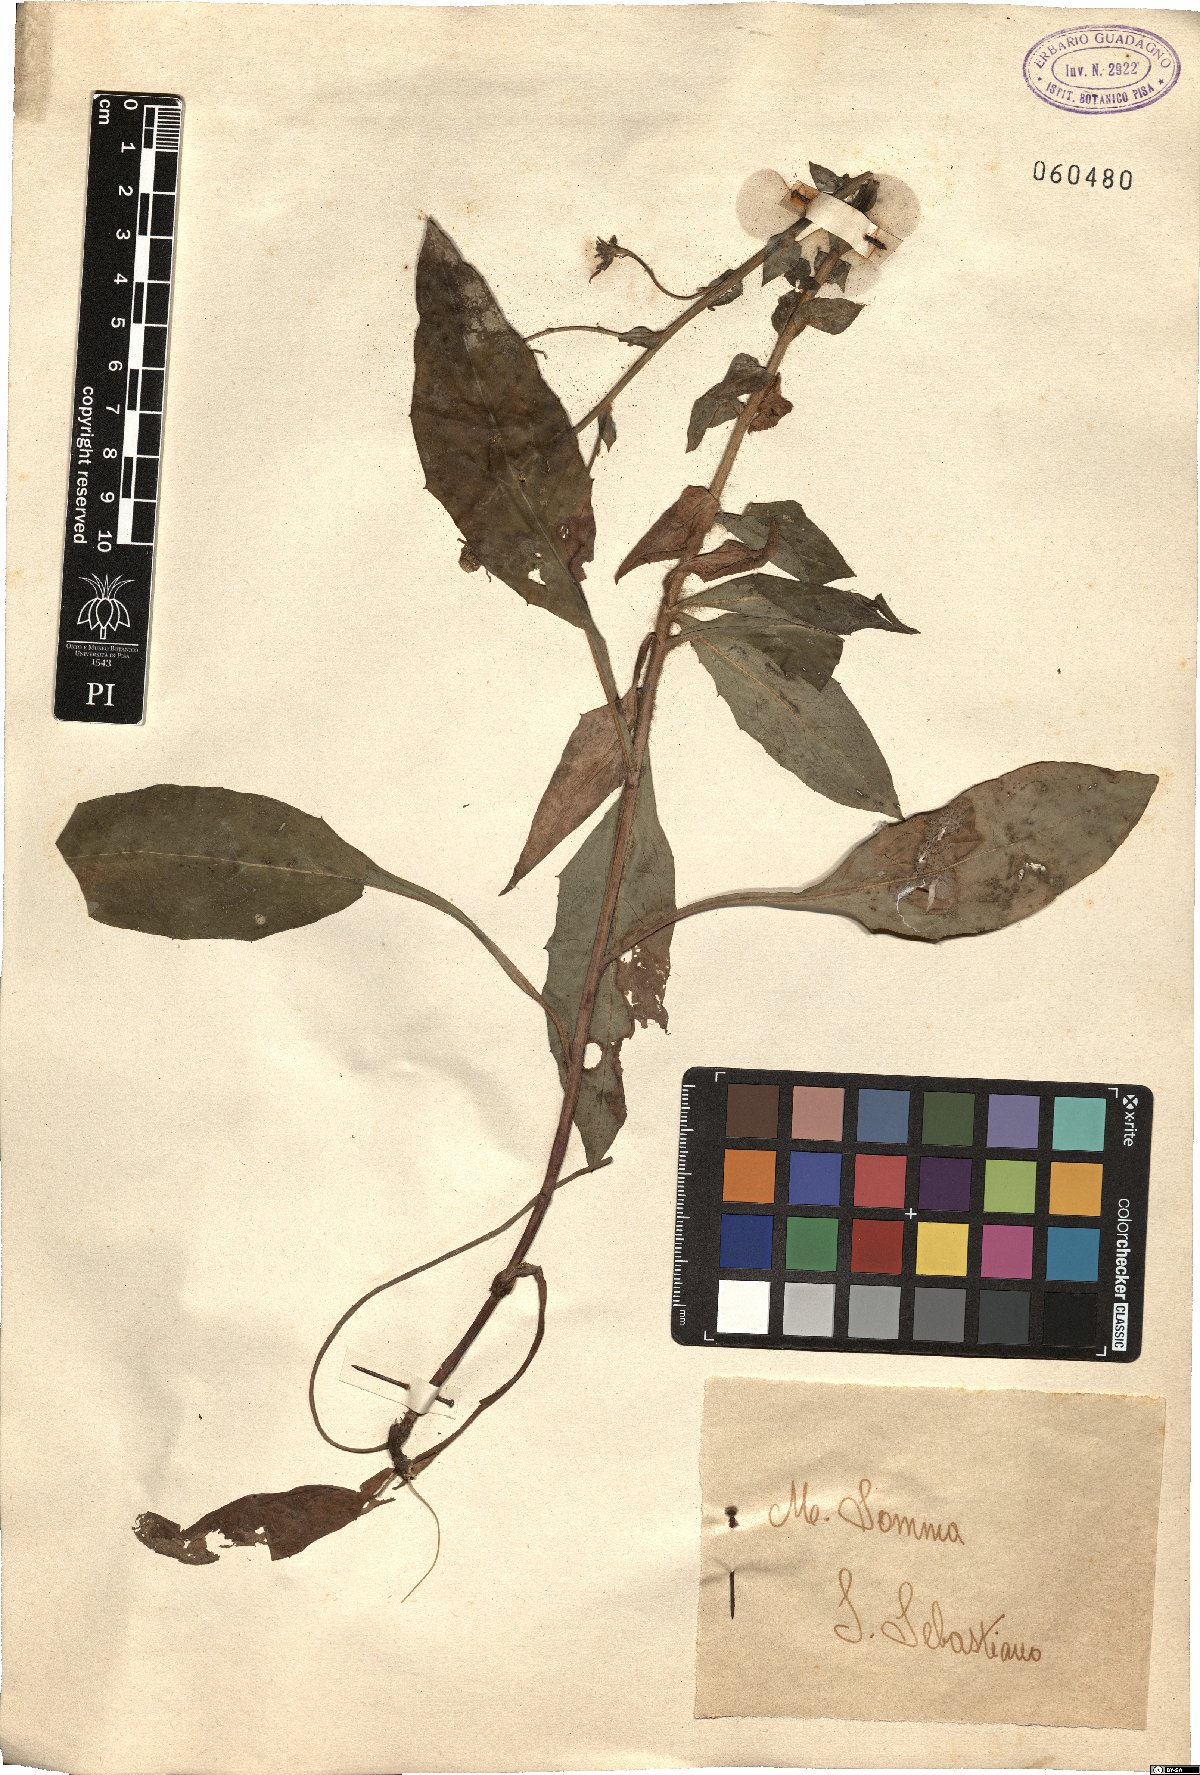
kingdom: Plantae
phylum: Tracheophyta
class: Magnoliopsida
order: Asterales
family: Asteraceae
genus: Hieracium
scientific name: Hieracium
